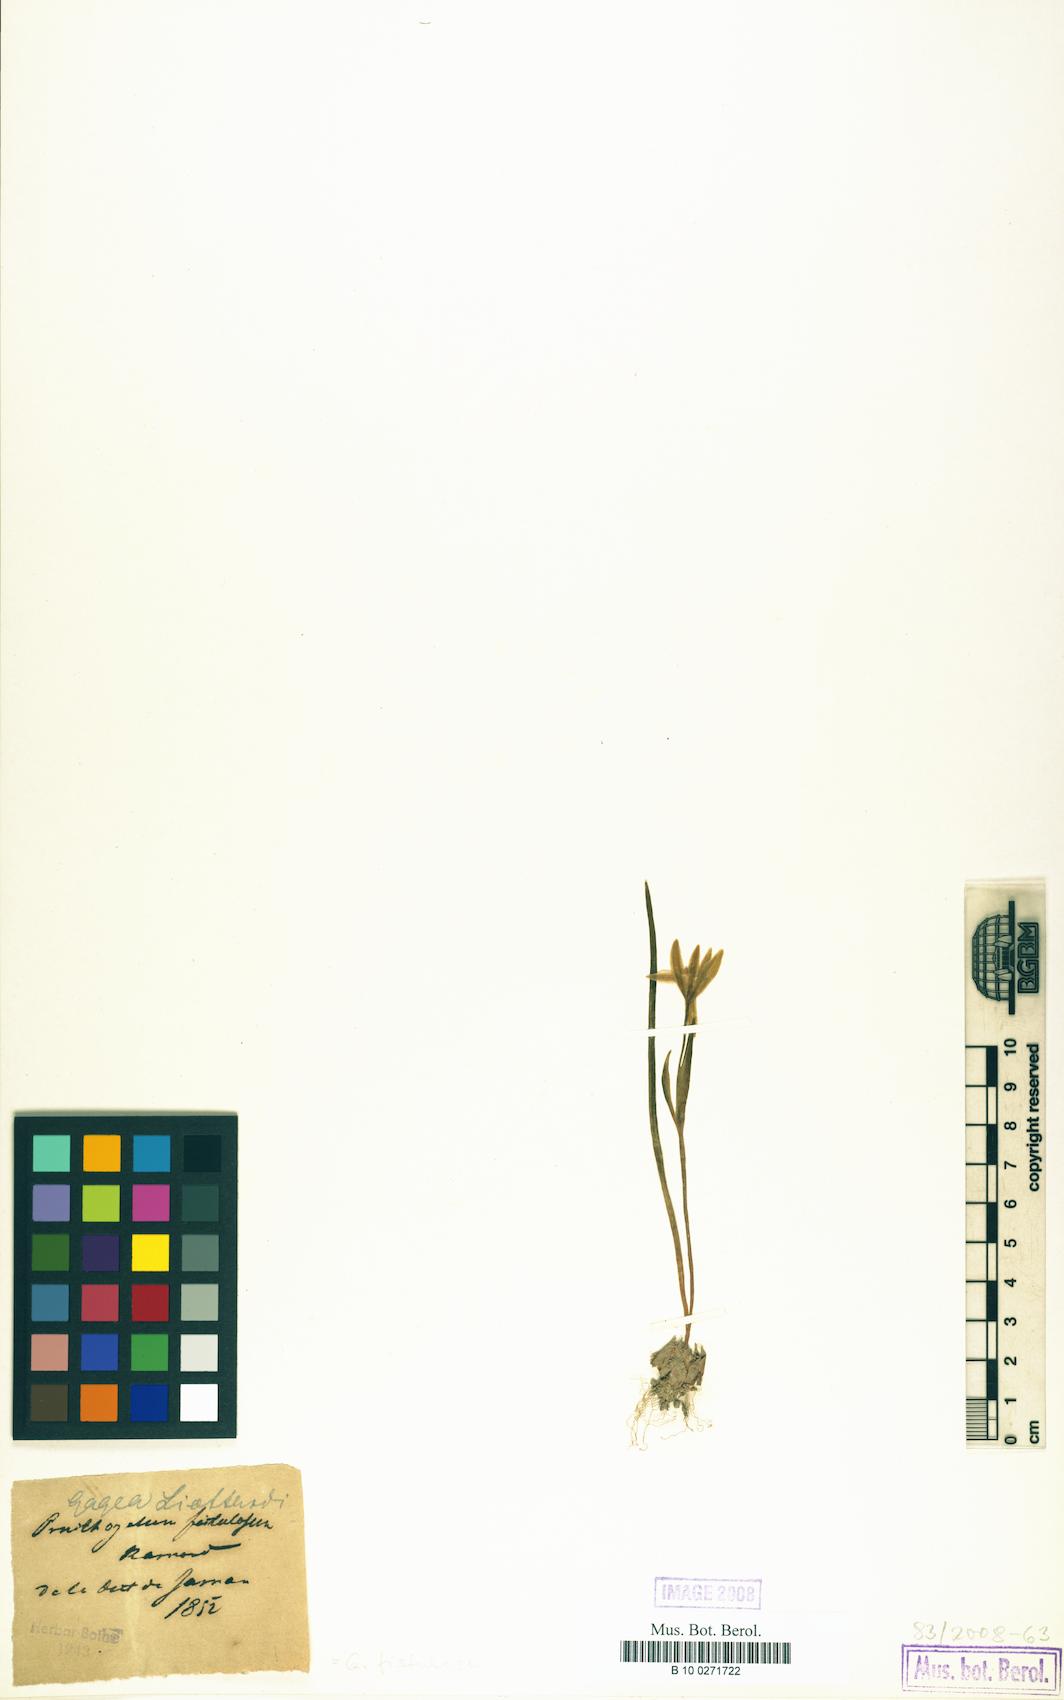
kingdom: Plantae
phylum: Tracheophyta
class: Liliopsida
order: Liliales
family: Liliaceae
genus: Gagea
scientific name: Gagea bohemica
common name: Early star-of-bethlehem
